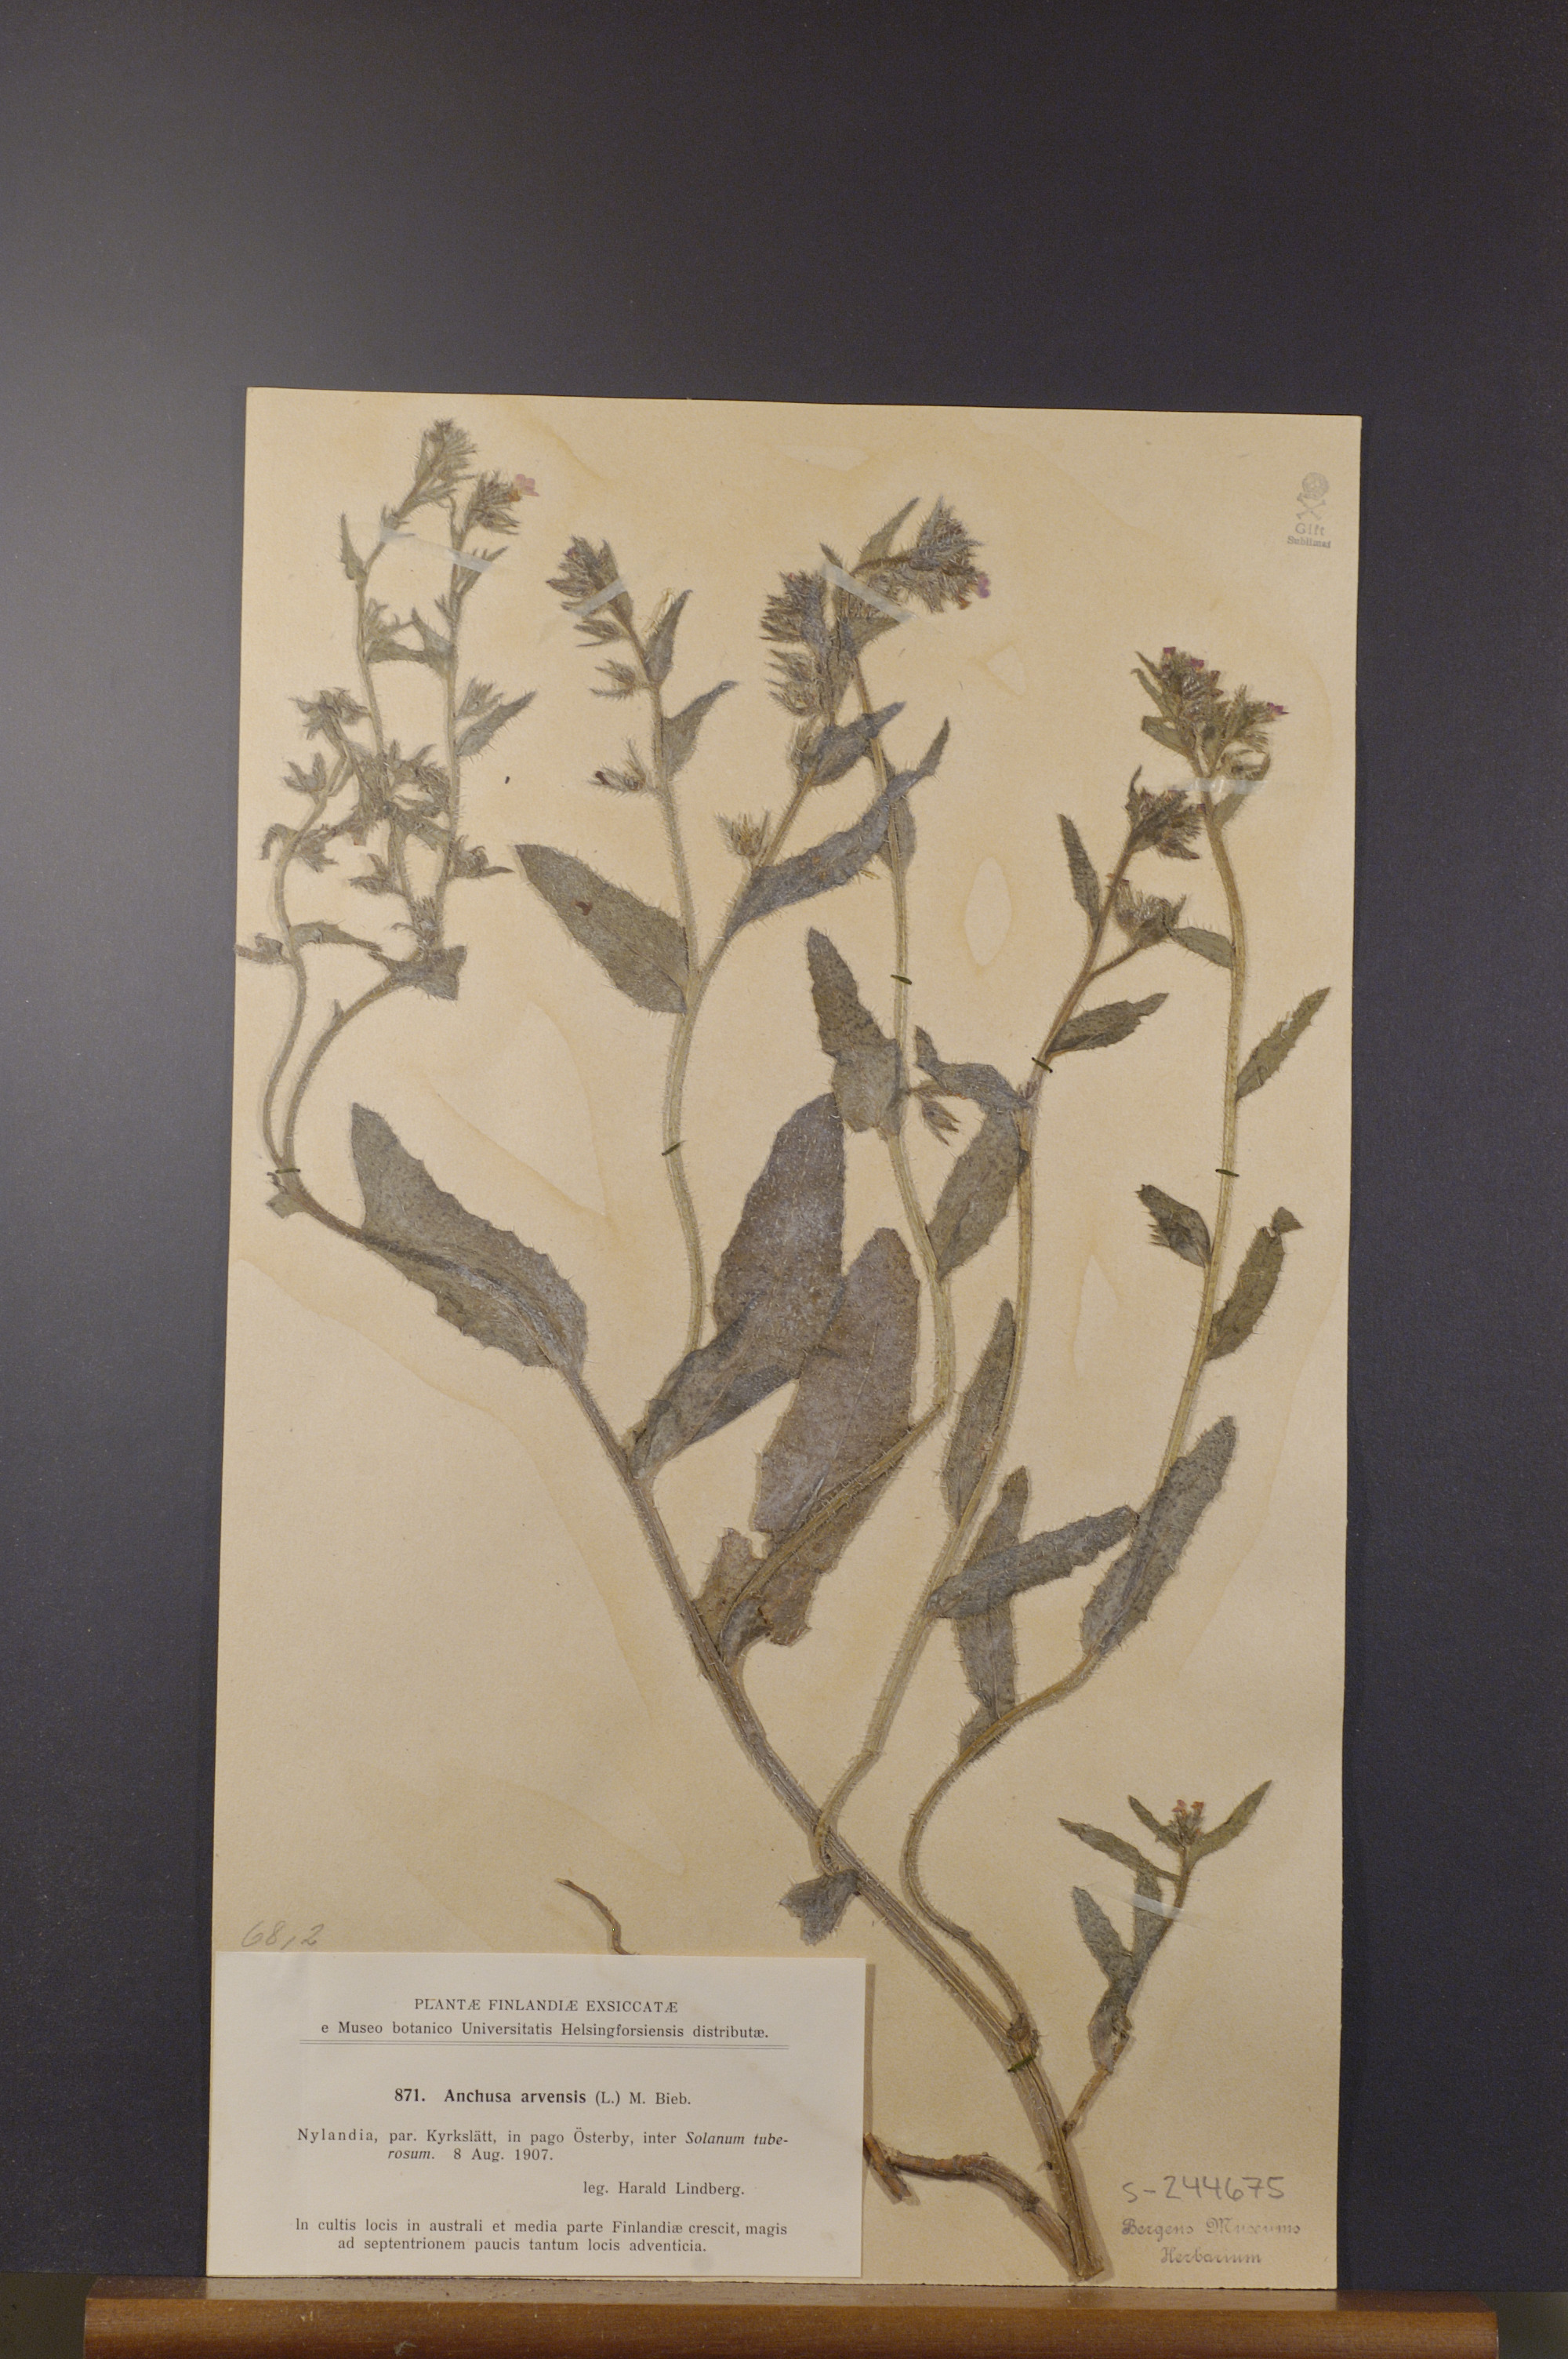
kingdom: Plantae
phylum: Tracheophyta
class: Magnoliopsida
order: Boraginales
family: Boraginaceae
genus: Lycopsis
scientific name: Lycopsis arvensis
